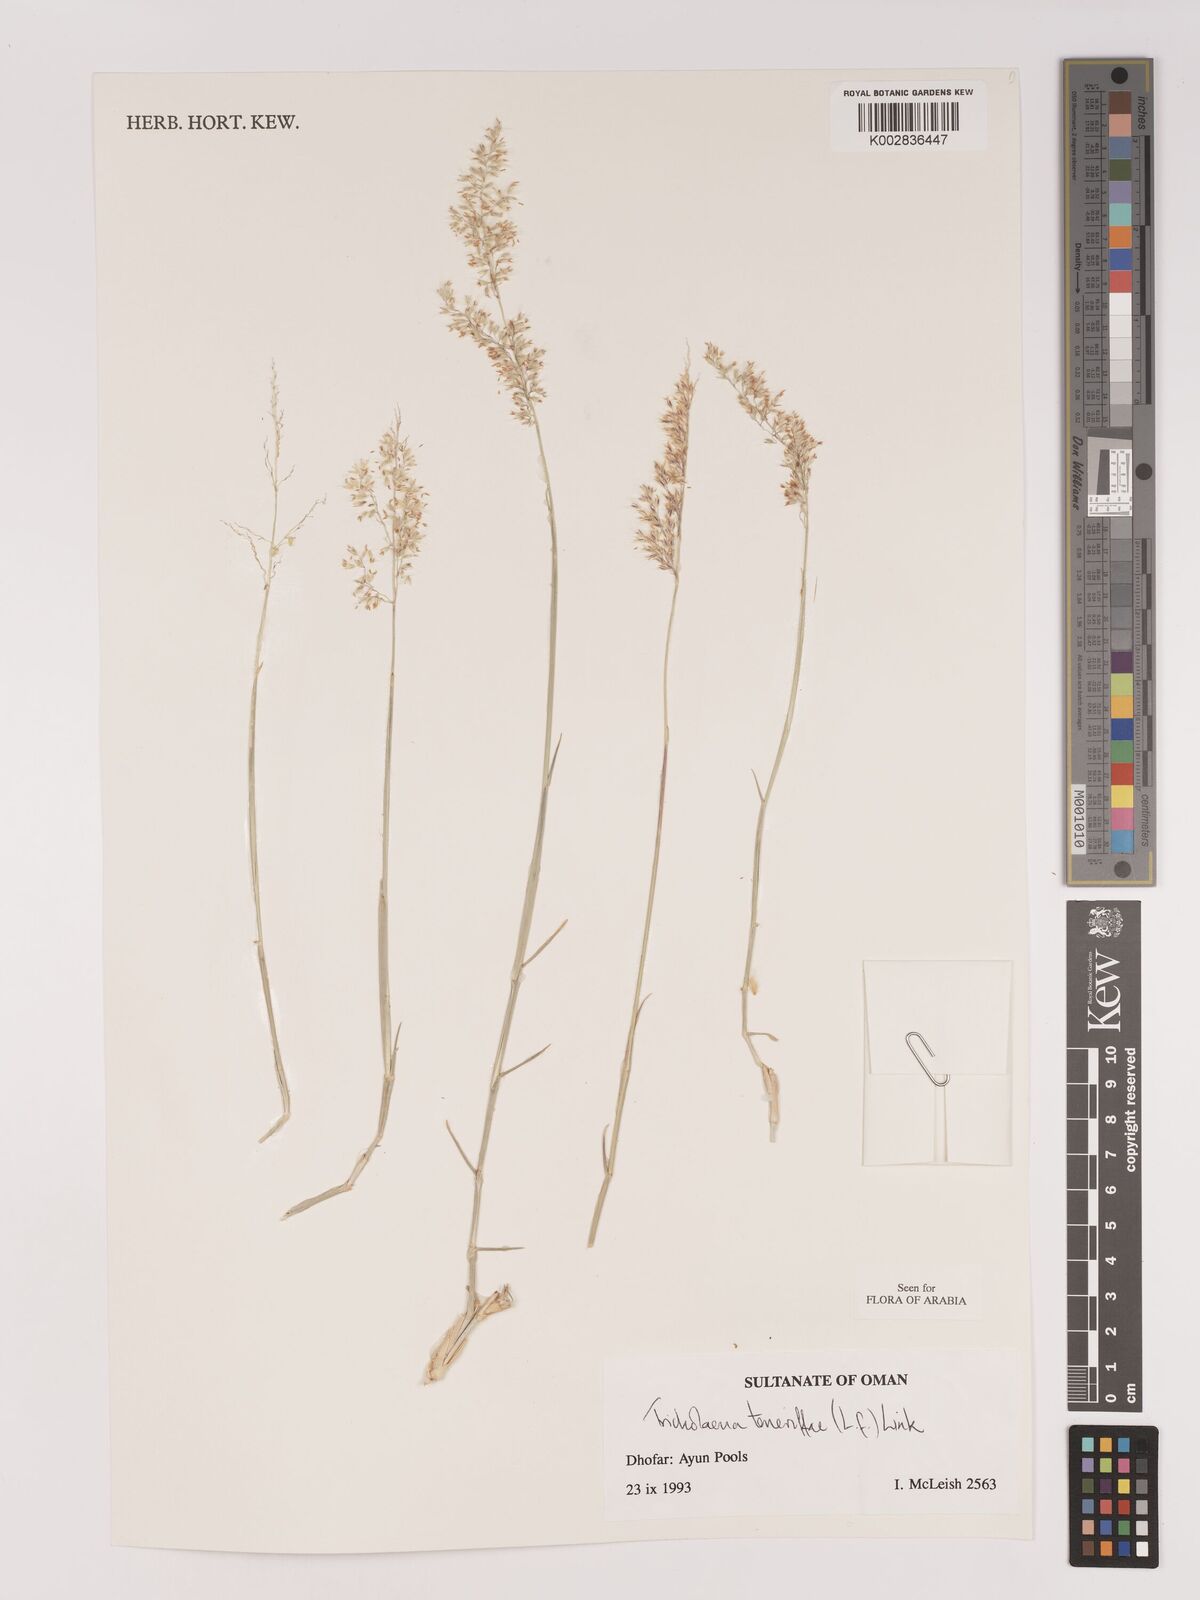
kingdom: Plantae
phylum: Tracheophyta
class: Liliopsida
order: Poales
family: Poaceae
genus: Tricholaena
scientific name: Tricholaena teneriffae
